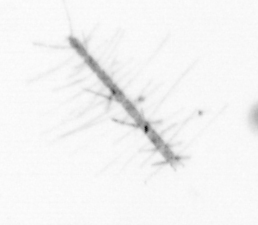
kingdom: Chromista
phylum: Ochrophyta
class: Bacillariophyceae
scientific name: Bacillariophyceae
